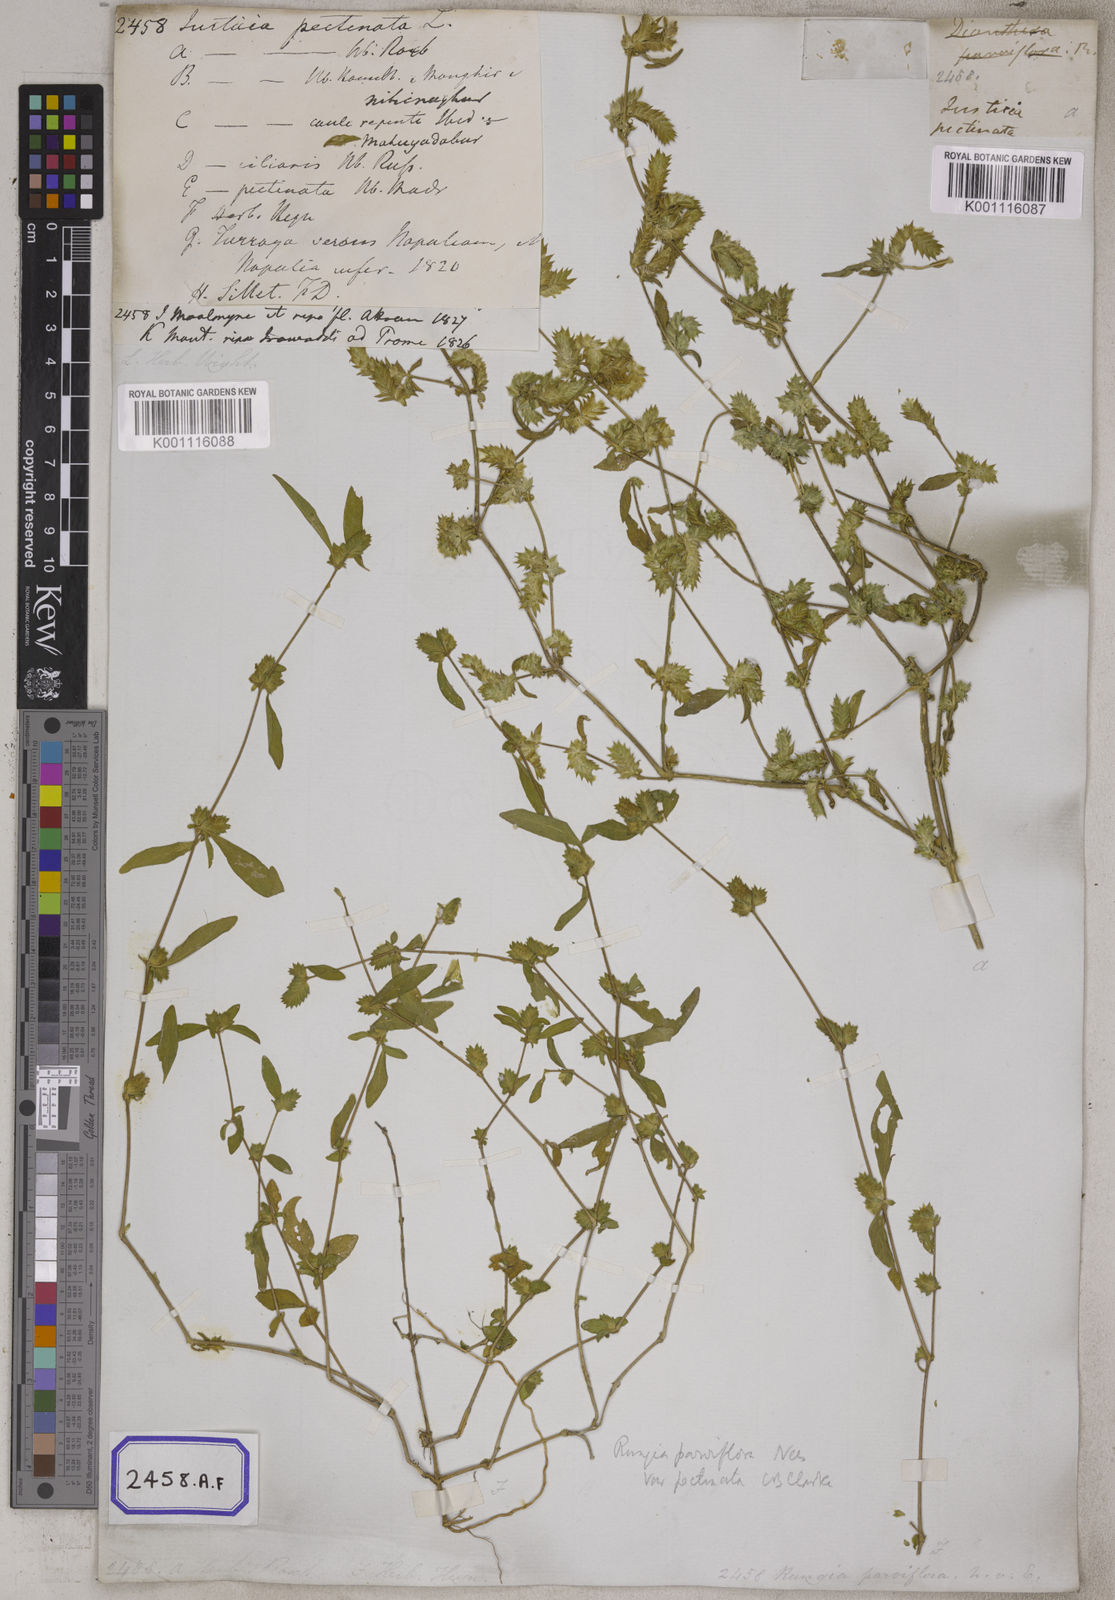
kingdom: Plantae
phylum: Tracheophyta
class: Magnoliopsida
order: Lamiales
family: Acanthaceae
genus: Rungia
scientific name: Rungia pectinata
